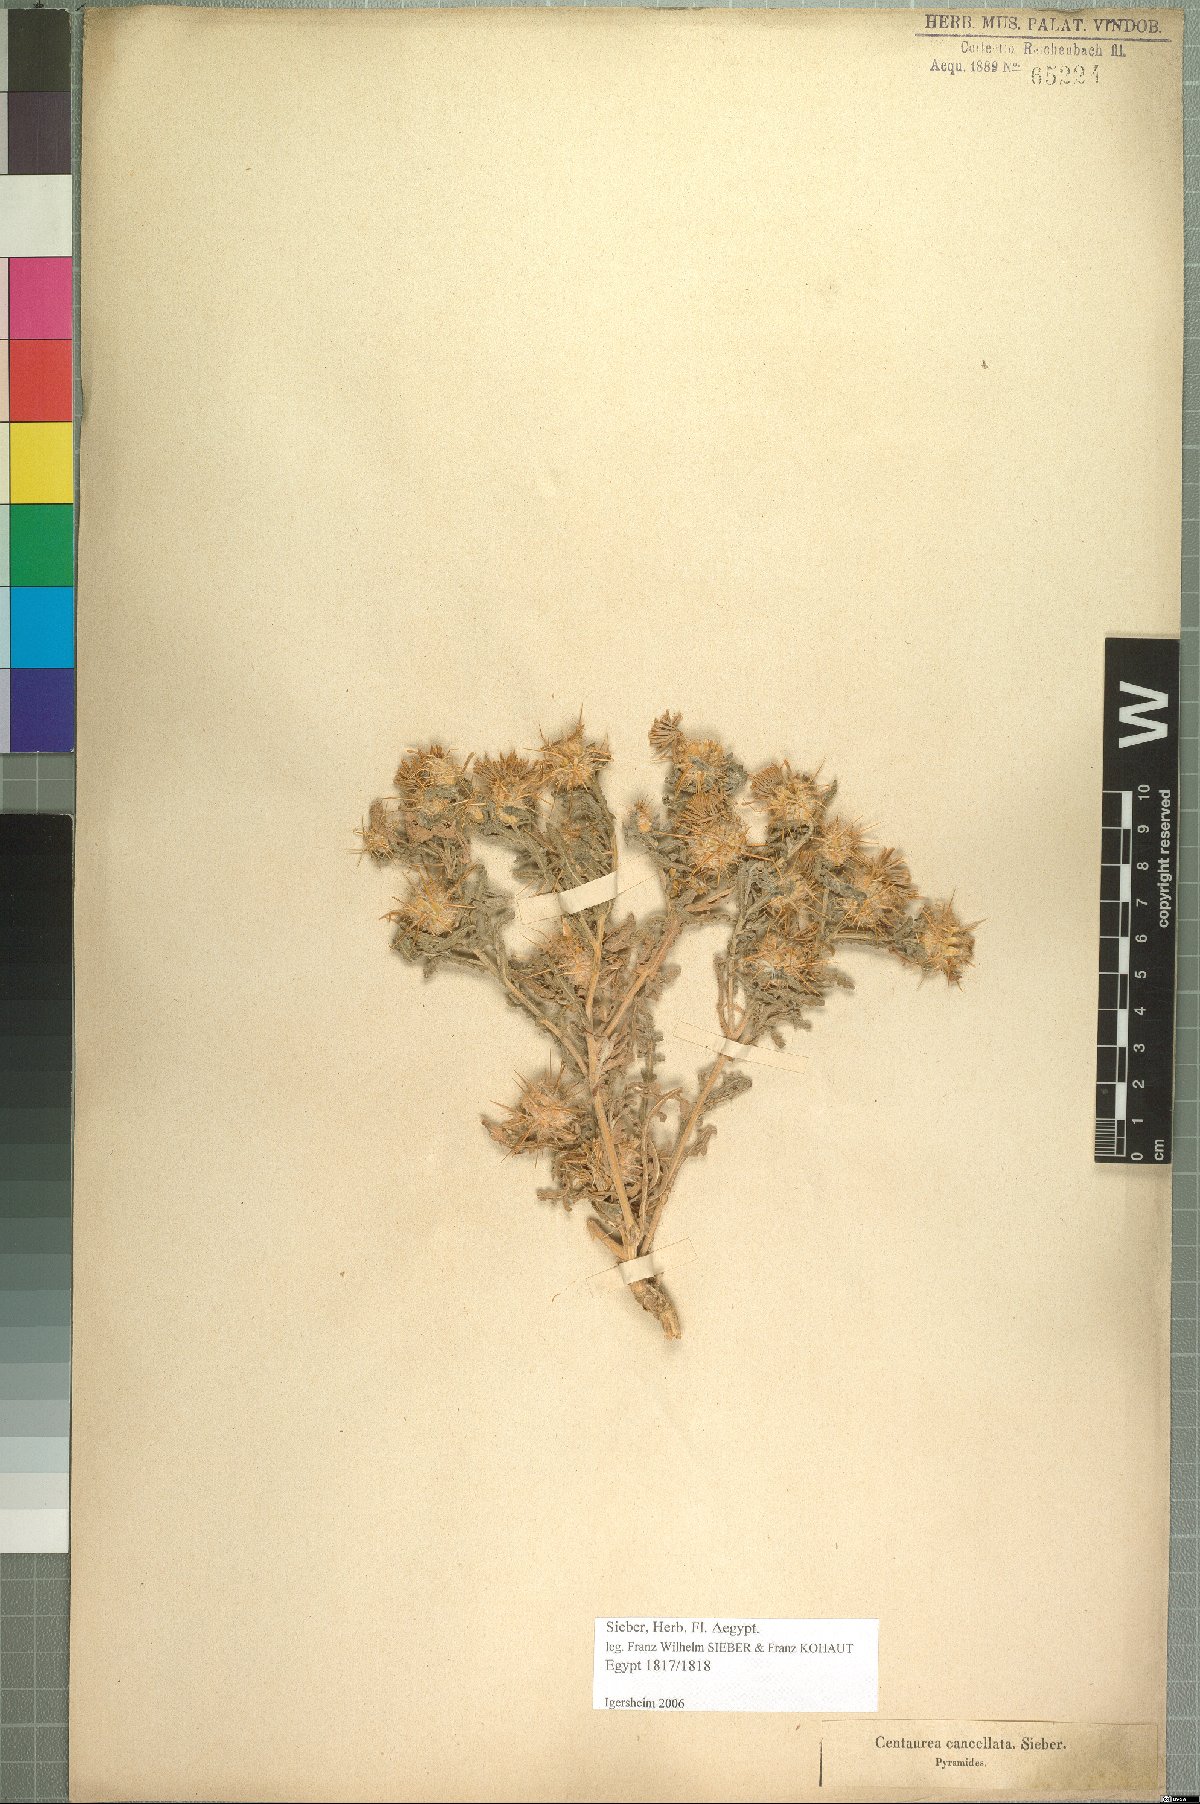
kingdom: Plantae
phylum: Tracheophyta
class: Magnoliopsida
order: Asterales
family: Asteraceae
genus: Centaurea
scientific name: Centaurea aegyptiaca
